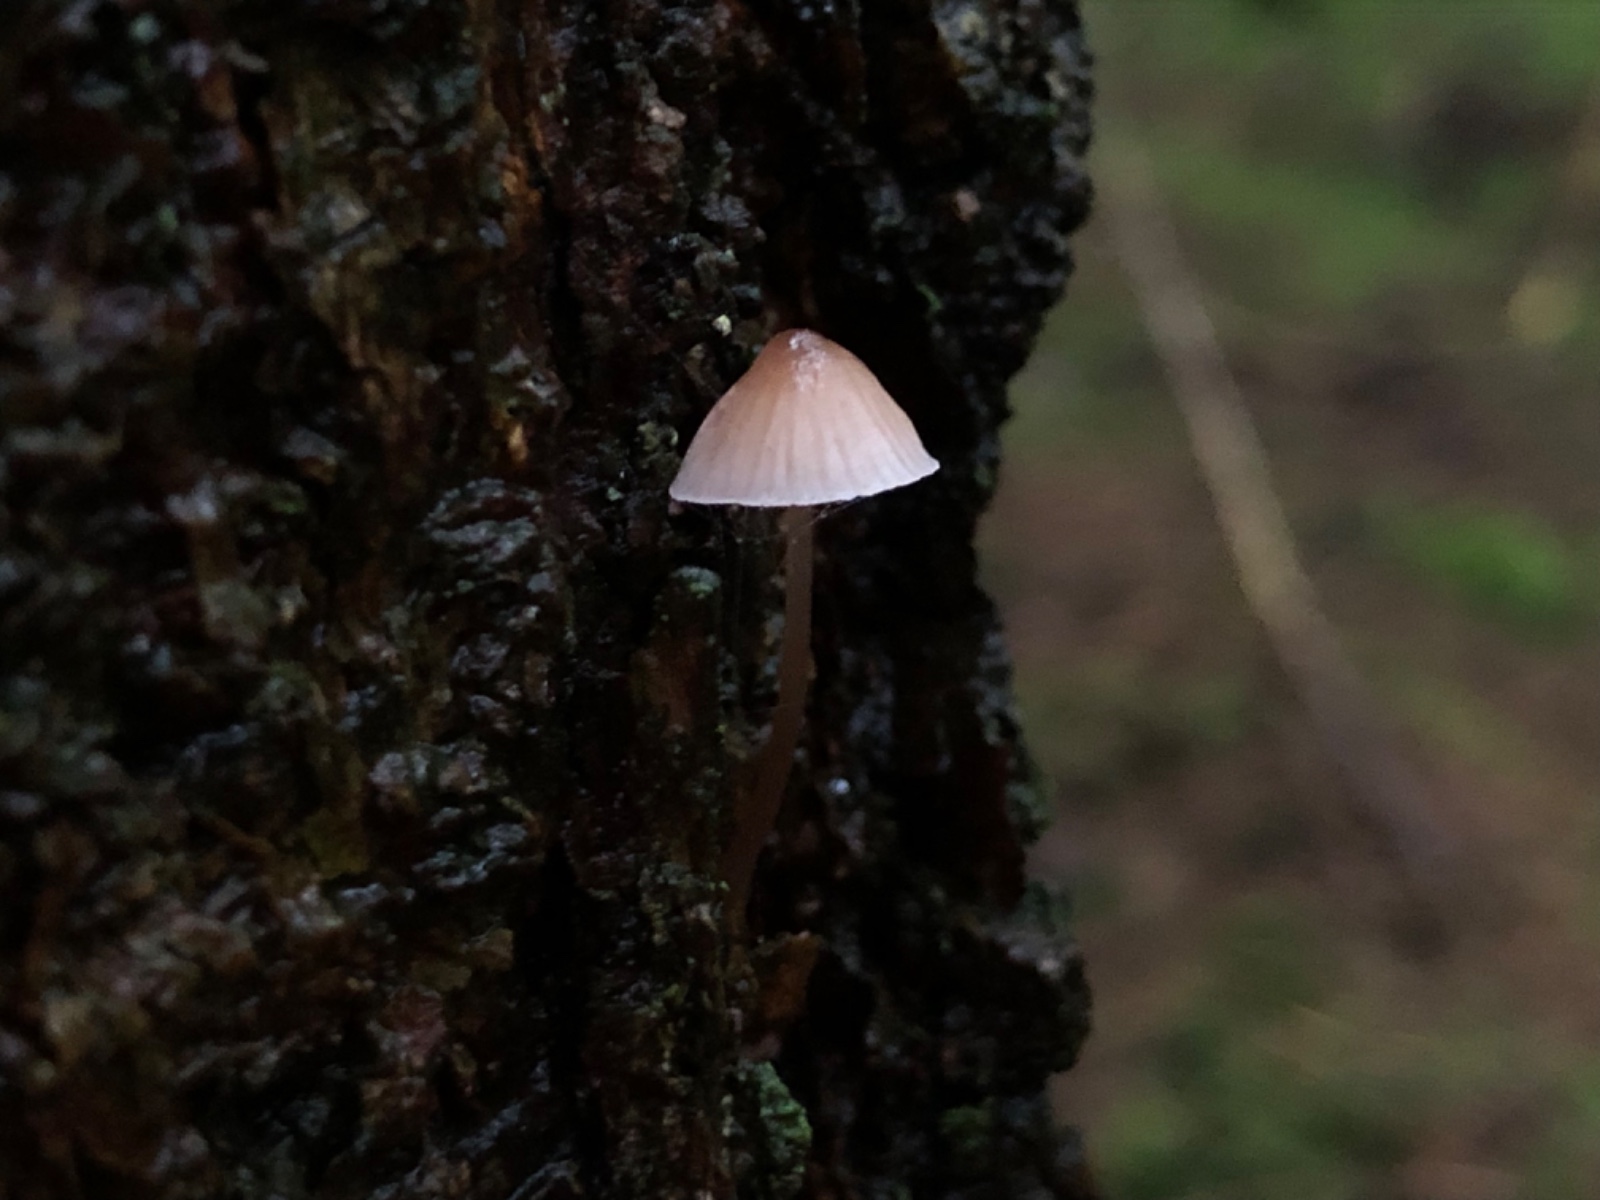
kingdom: Fungi
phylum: Basidiomycota
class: Agaricomycetes
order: Agaricales
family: Mycenaceae
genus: Mycena
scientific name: Mycena metata
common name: rødlig huesvamp
